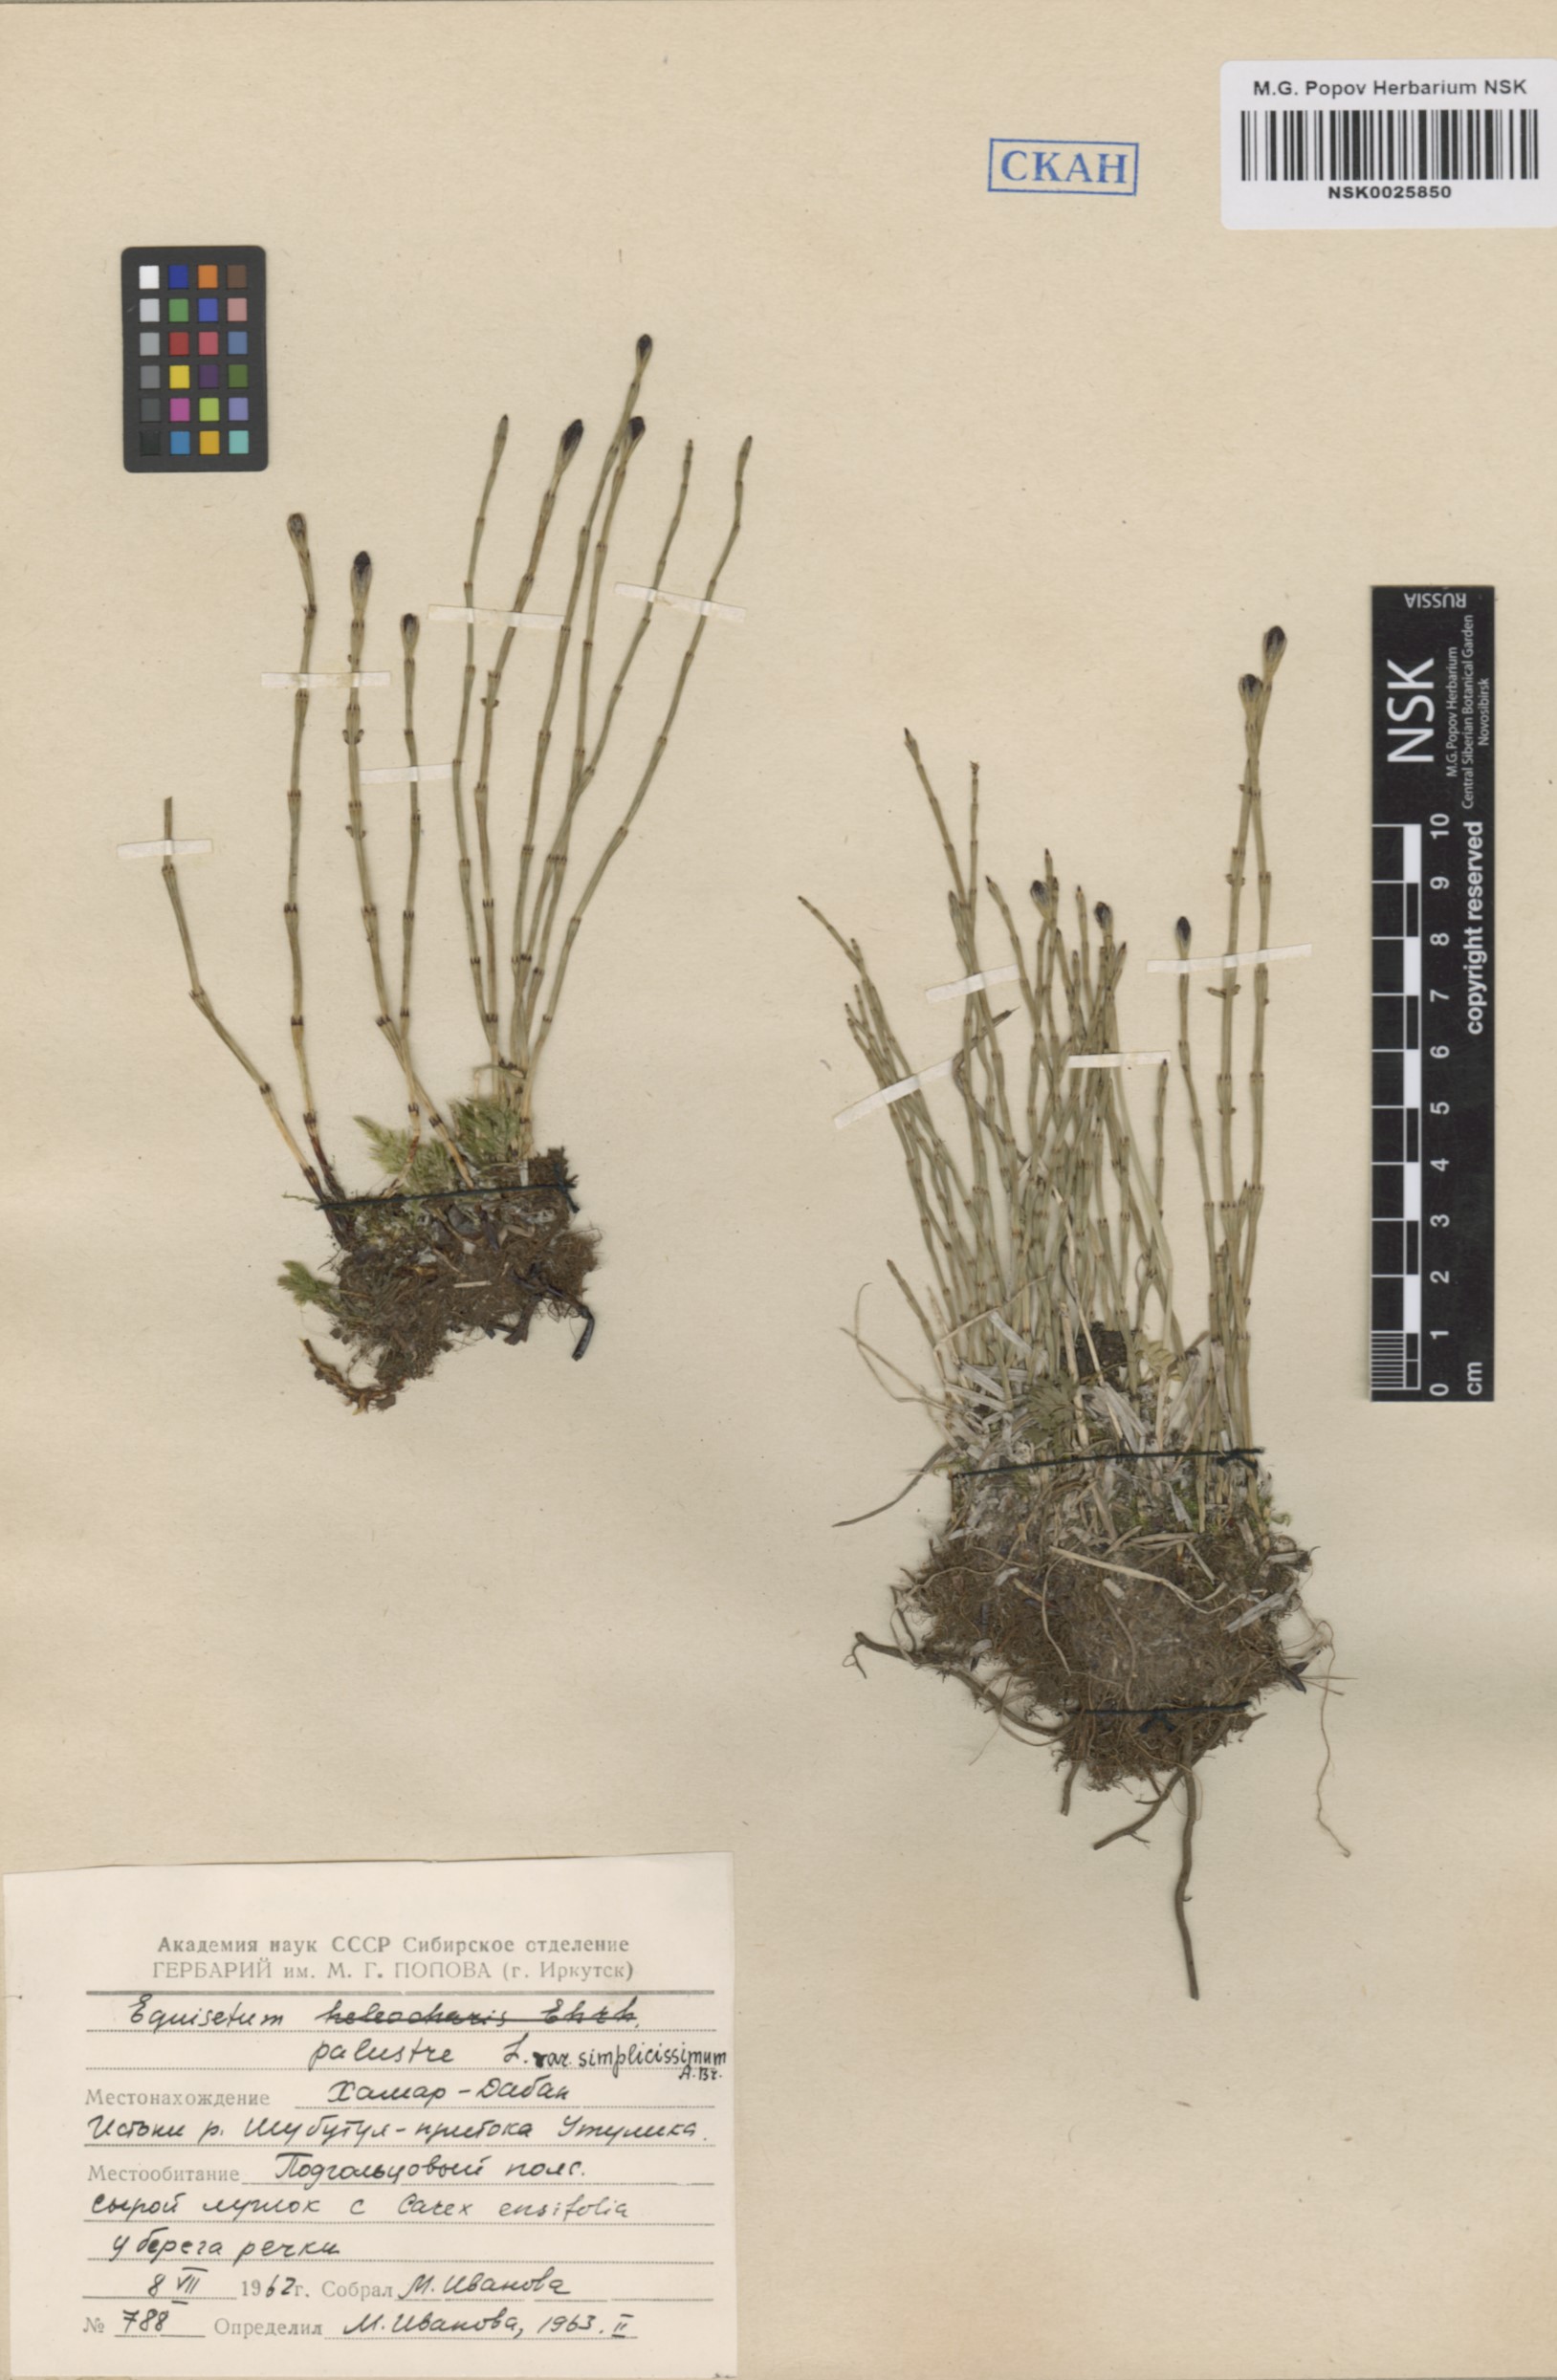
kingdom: Plantae
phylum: Tracheophyta
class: Polypodiopsida
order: Equisetales
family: Equisetaceae
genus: Equisetum
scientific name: Equisetum palustre
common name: Marsh horsetail
